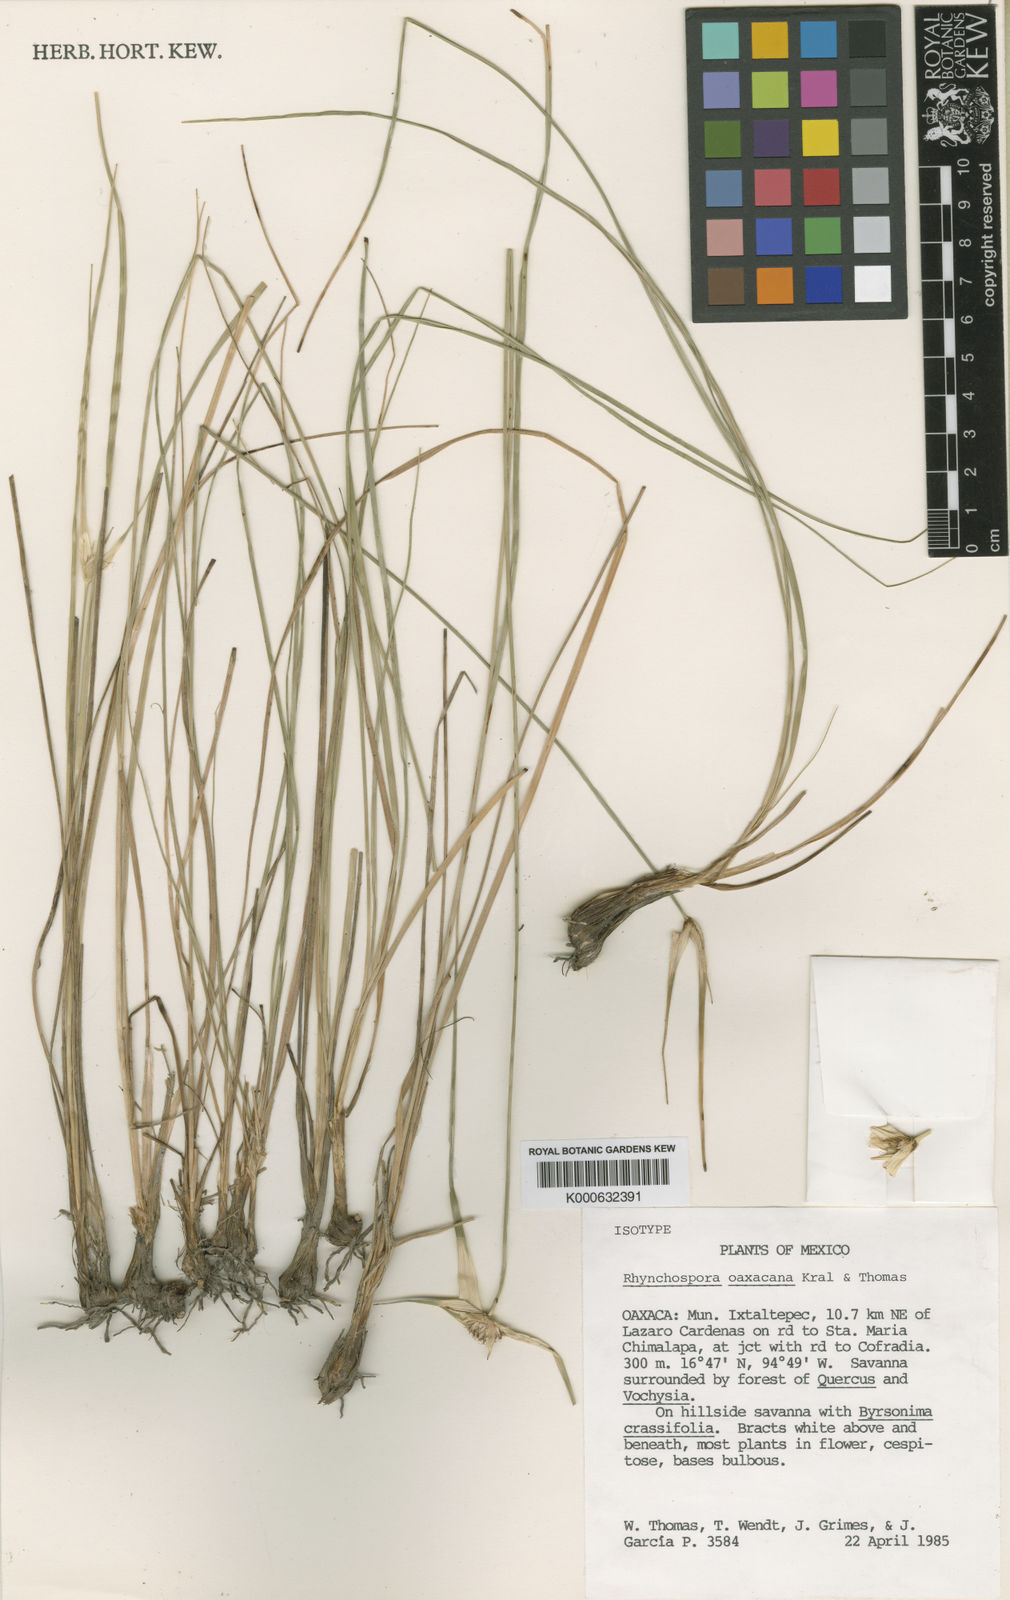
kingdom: Plantae
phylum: Tracheophyta
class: Liliopsida
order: Poales
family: Cyperaceae
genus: Rhynchospora
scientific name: Rhynchospora consanguinea
